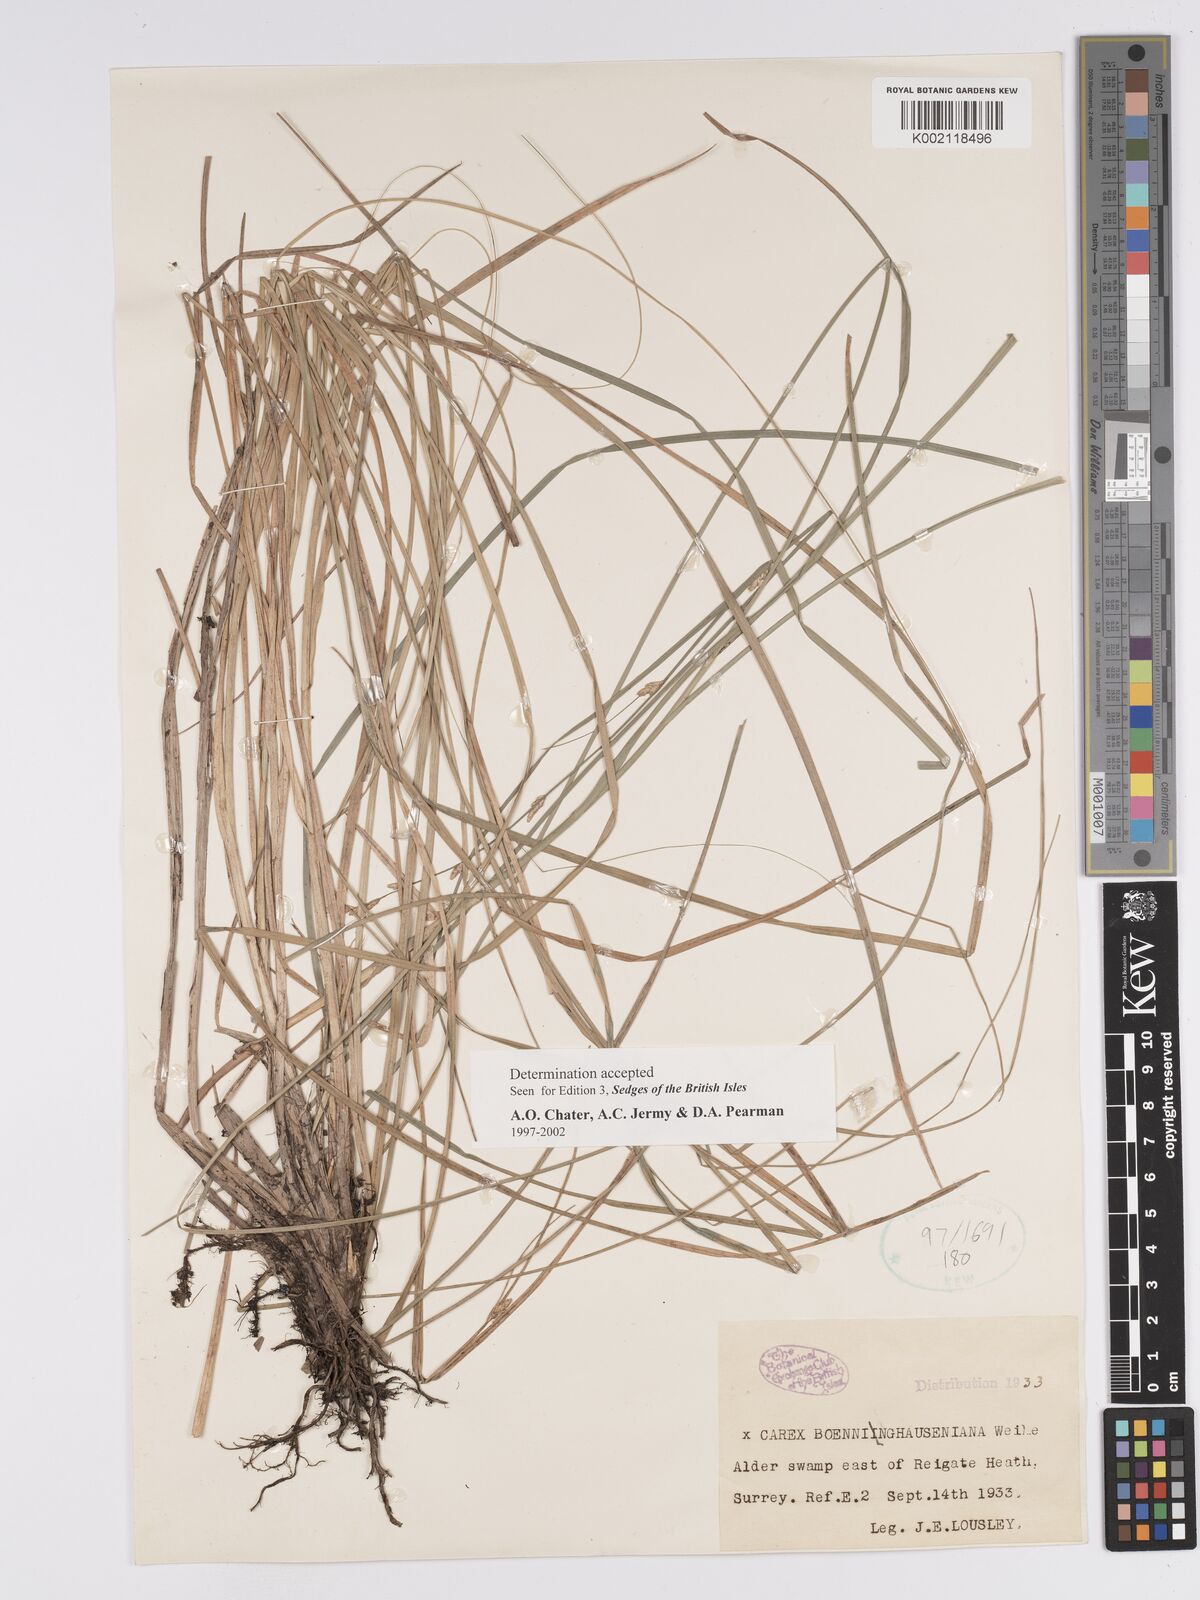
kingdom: Plantae
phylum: Tracheophyta
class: Liliopsida
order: Poales
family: Cyperaceae
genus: Carex
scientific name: Carex boenninghausiana
